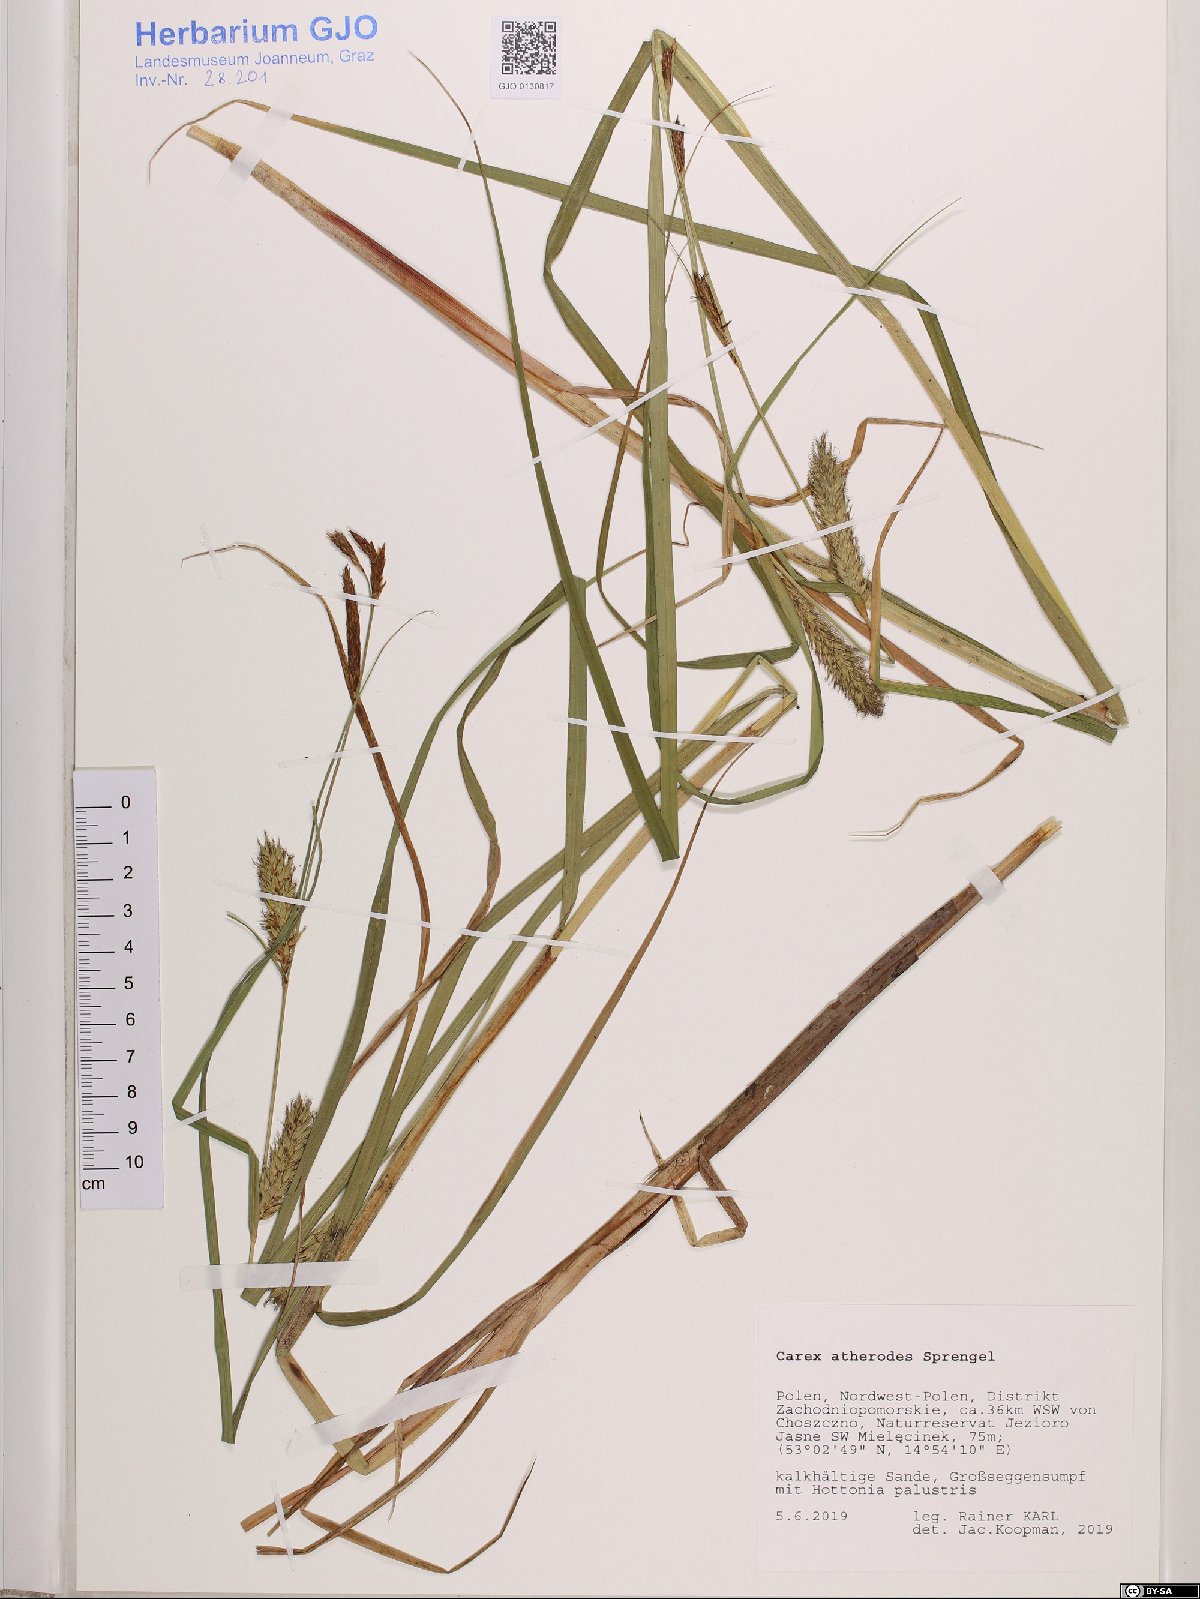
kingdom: Plantae
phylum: Tracheophyta
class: Liliopsida
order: Poales
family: Cyperaceae
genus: Carex
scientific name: Carex atherodes
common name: Wheat sedge
